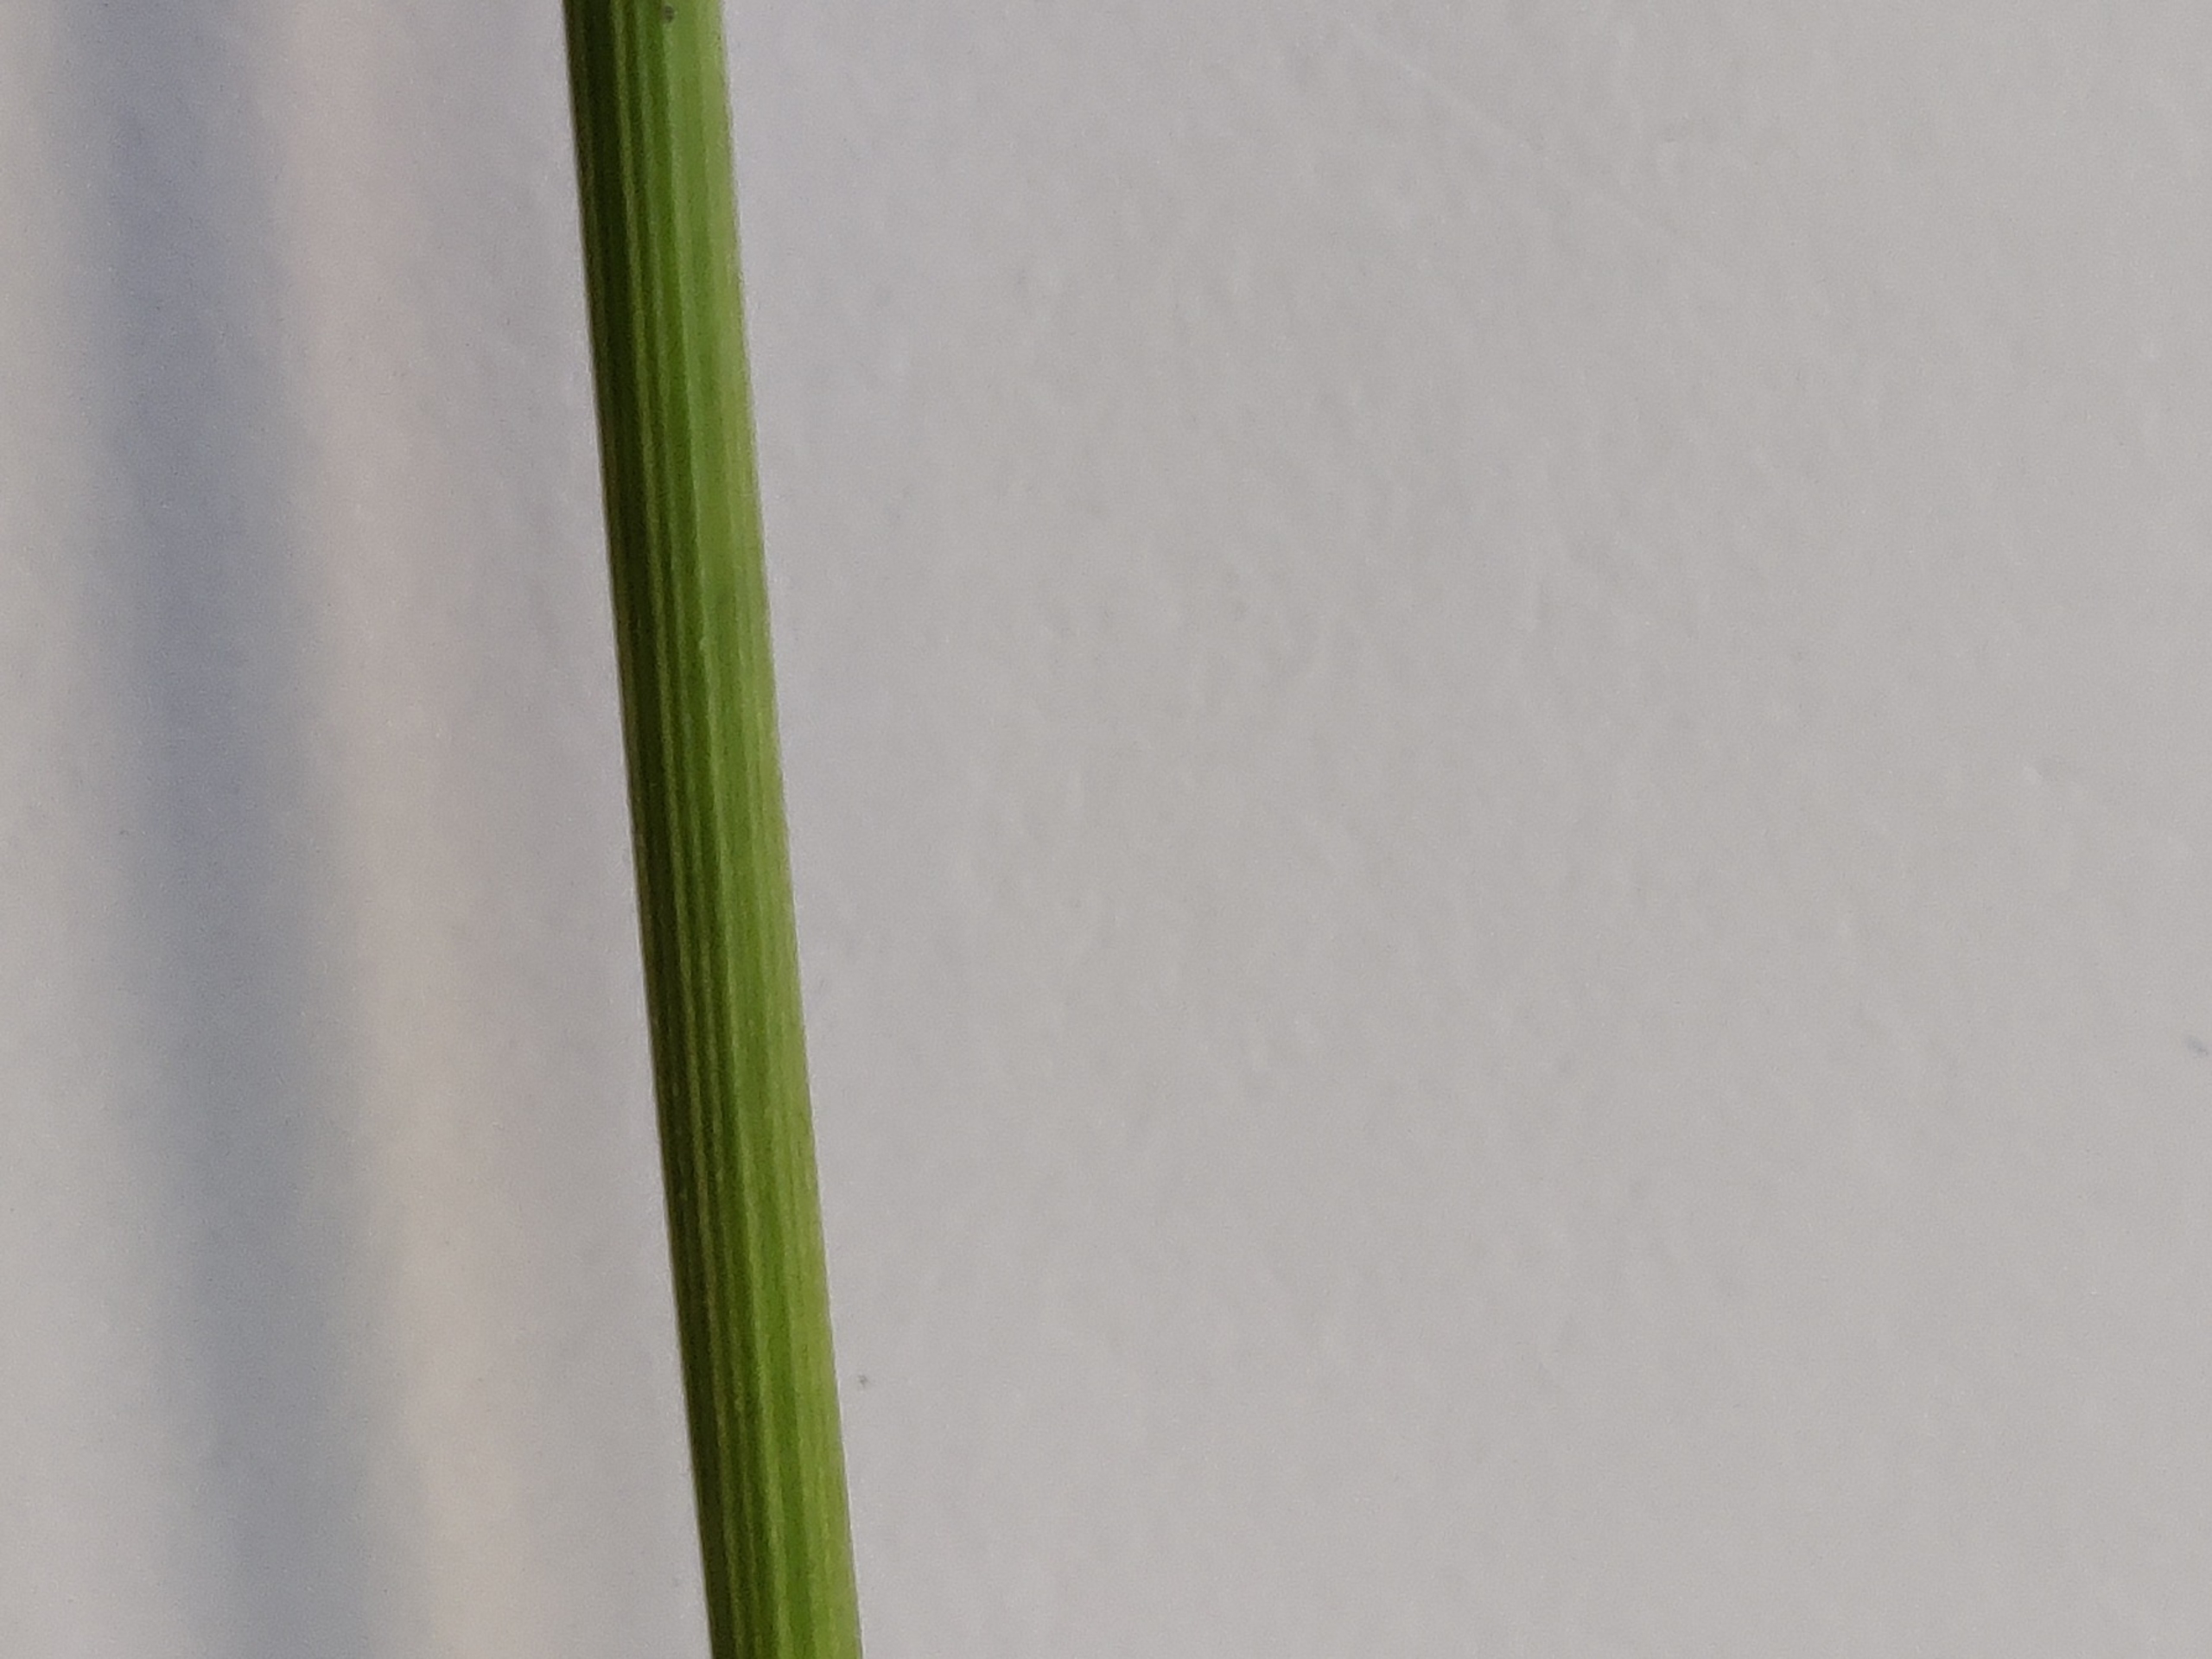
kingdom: Plantae
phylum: Tracheophyta
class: Liliopsida
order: Poales
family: Juncaceae
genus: Juncus
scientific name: Juncus conglomeratus
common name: Knop-siv
